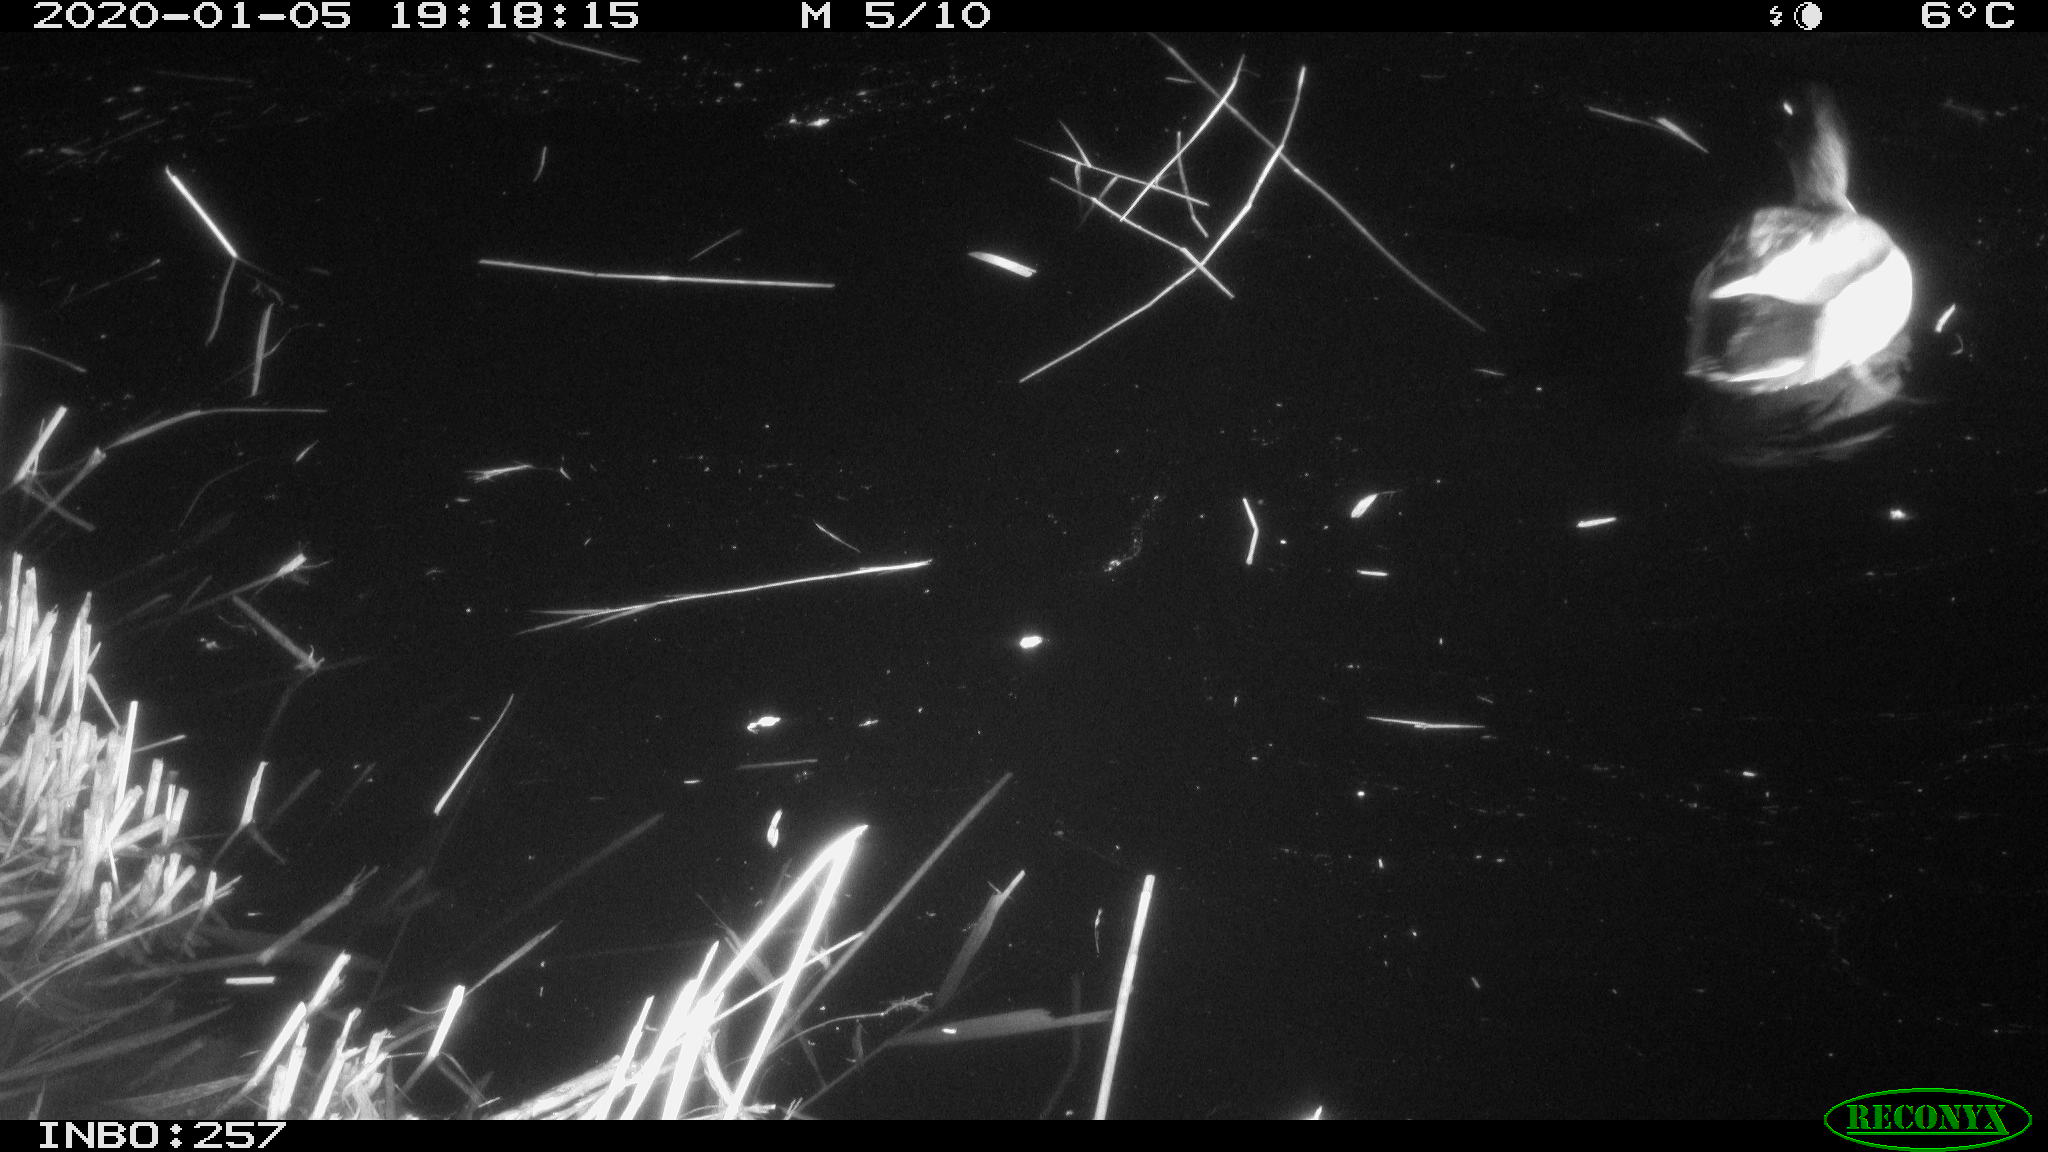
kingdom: Animalia
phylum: Chordata
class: Aves
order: Anseriformes
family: Anatidae
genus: Anas
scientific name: Anas platyrhynchos
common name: Mallard
